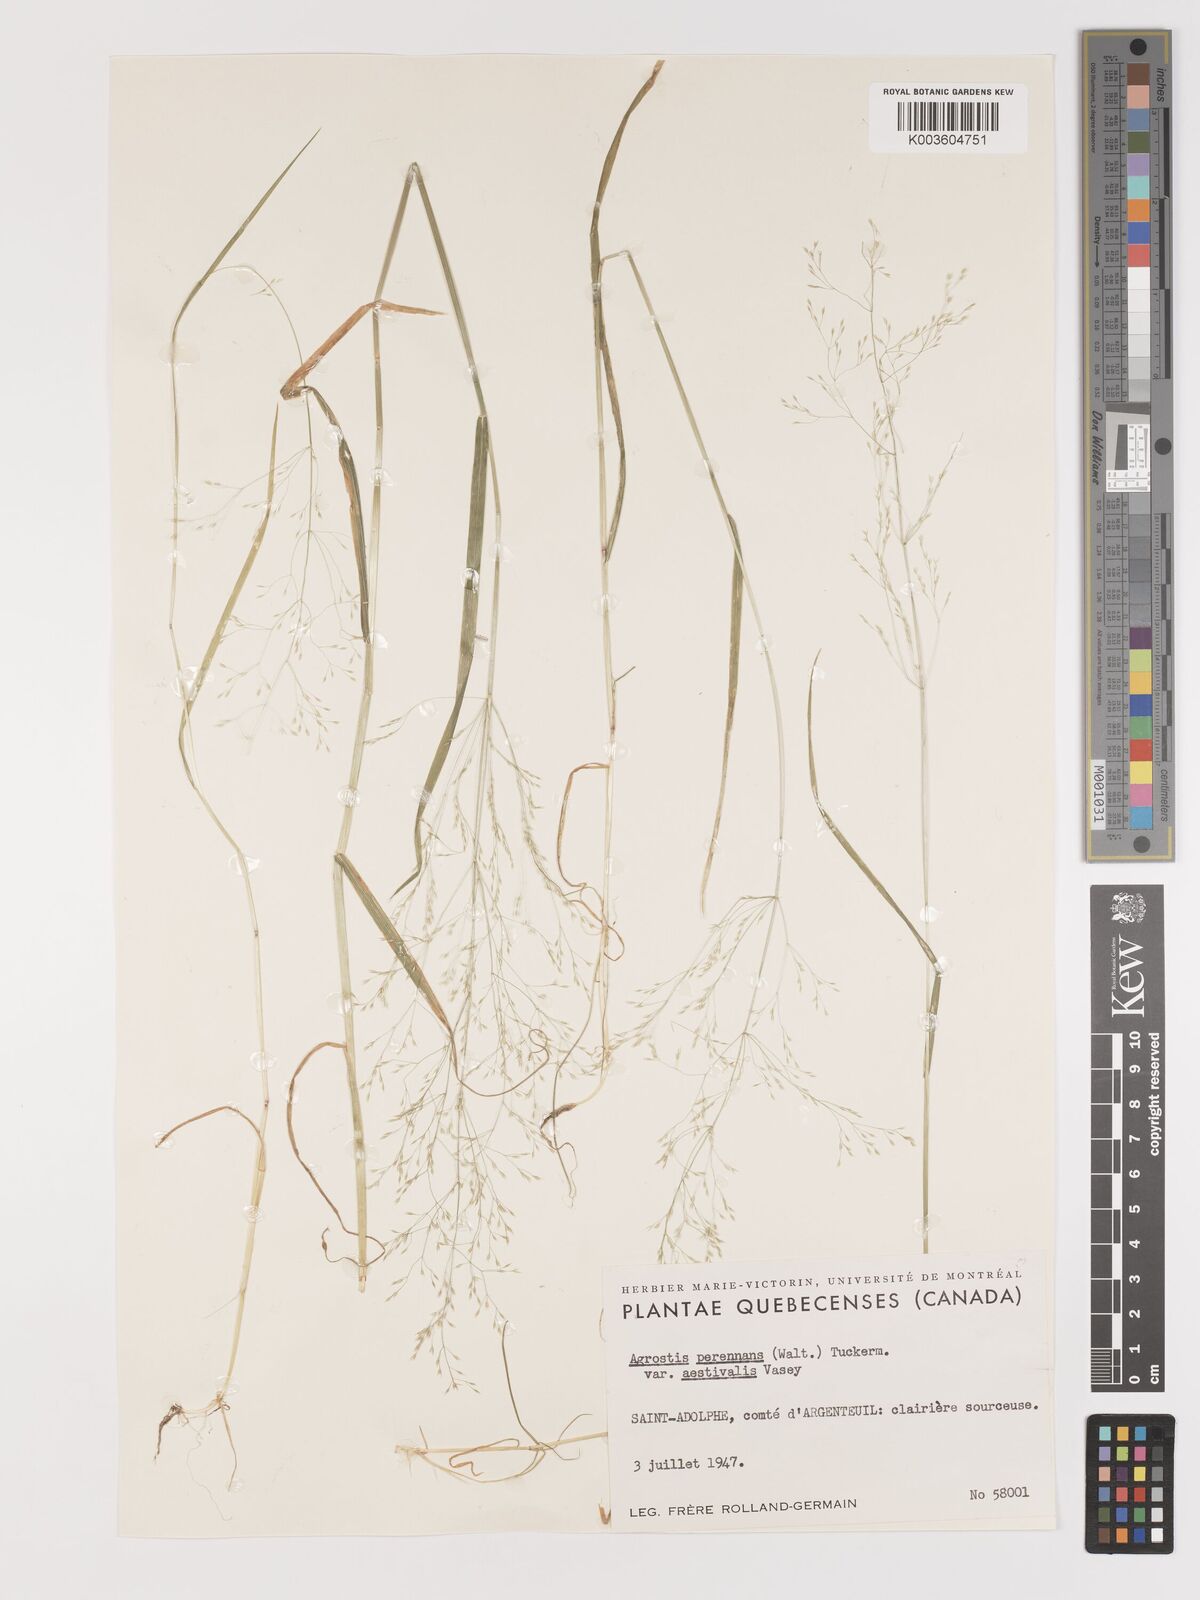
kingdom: Plantae
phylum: Tracheophyta
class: Liliopsida
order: Poales
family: Poaceae
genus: Agrostis
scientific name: Agrostis perennans
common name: Autumn bent
